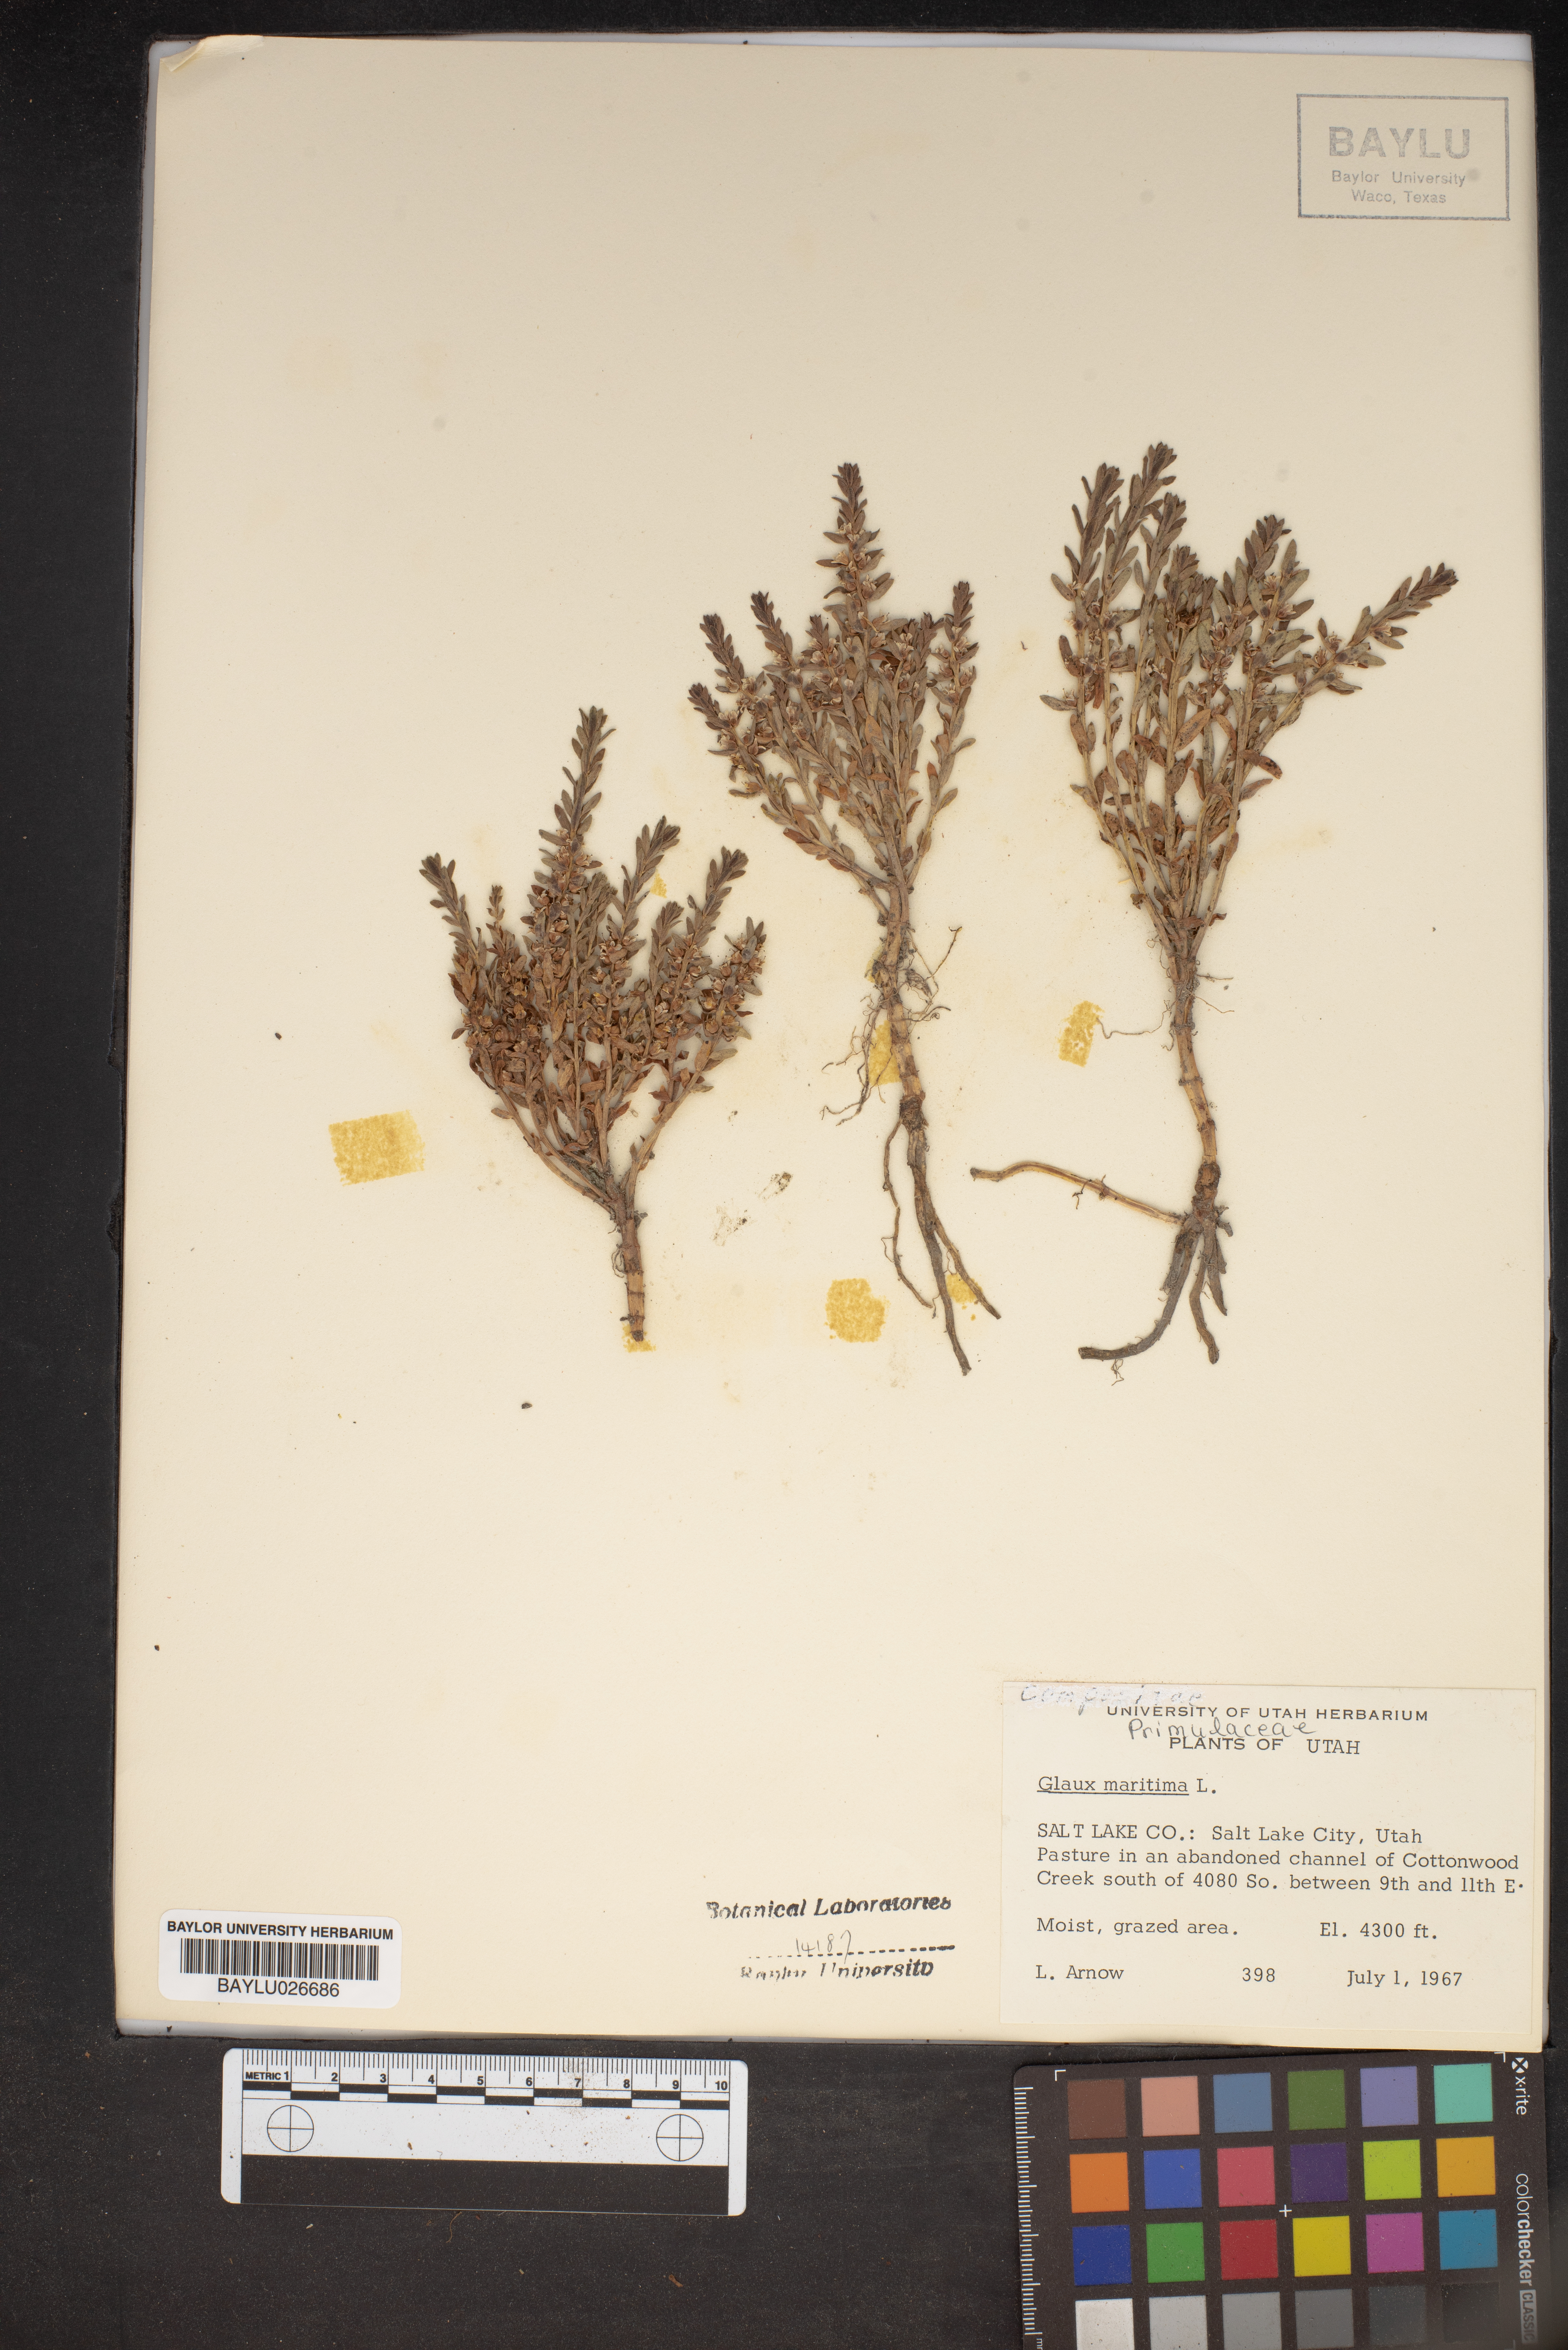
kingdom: Plantae
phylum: Tracheophyta
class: Magnoliopsida
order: Ericales
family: Primulaceae
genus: Lysimachia
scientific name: Lysimachia maritima
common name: Sea milkwort
